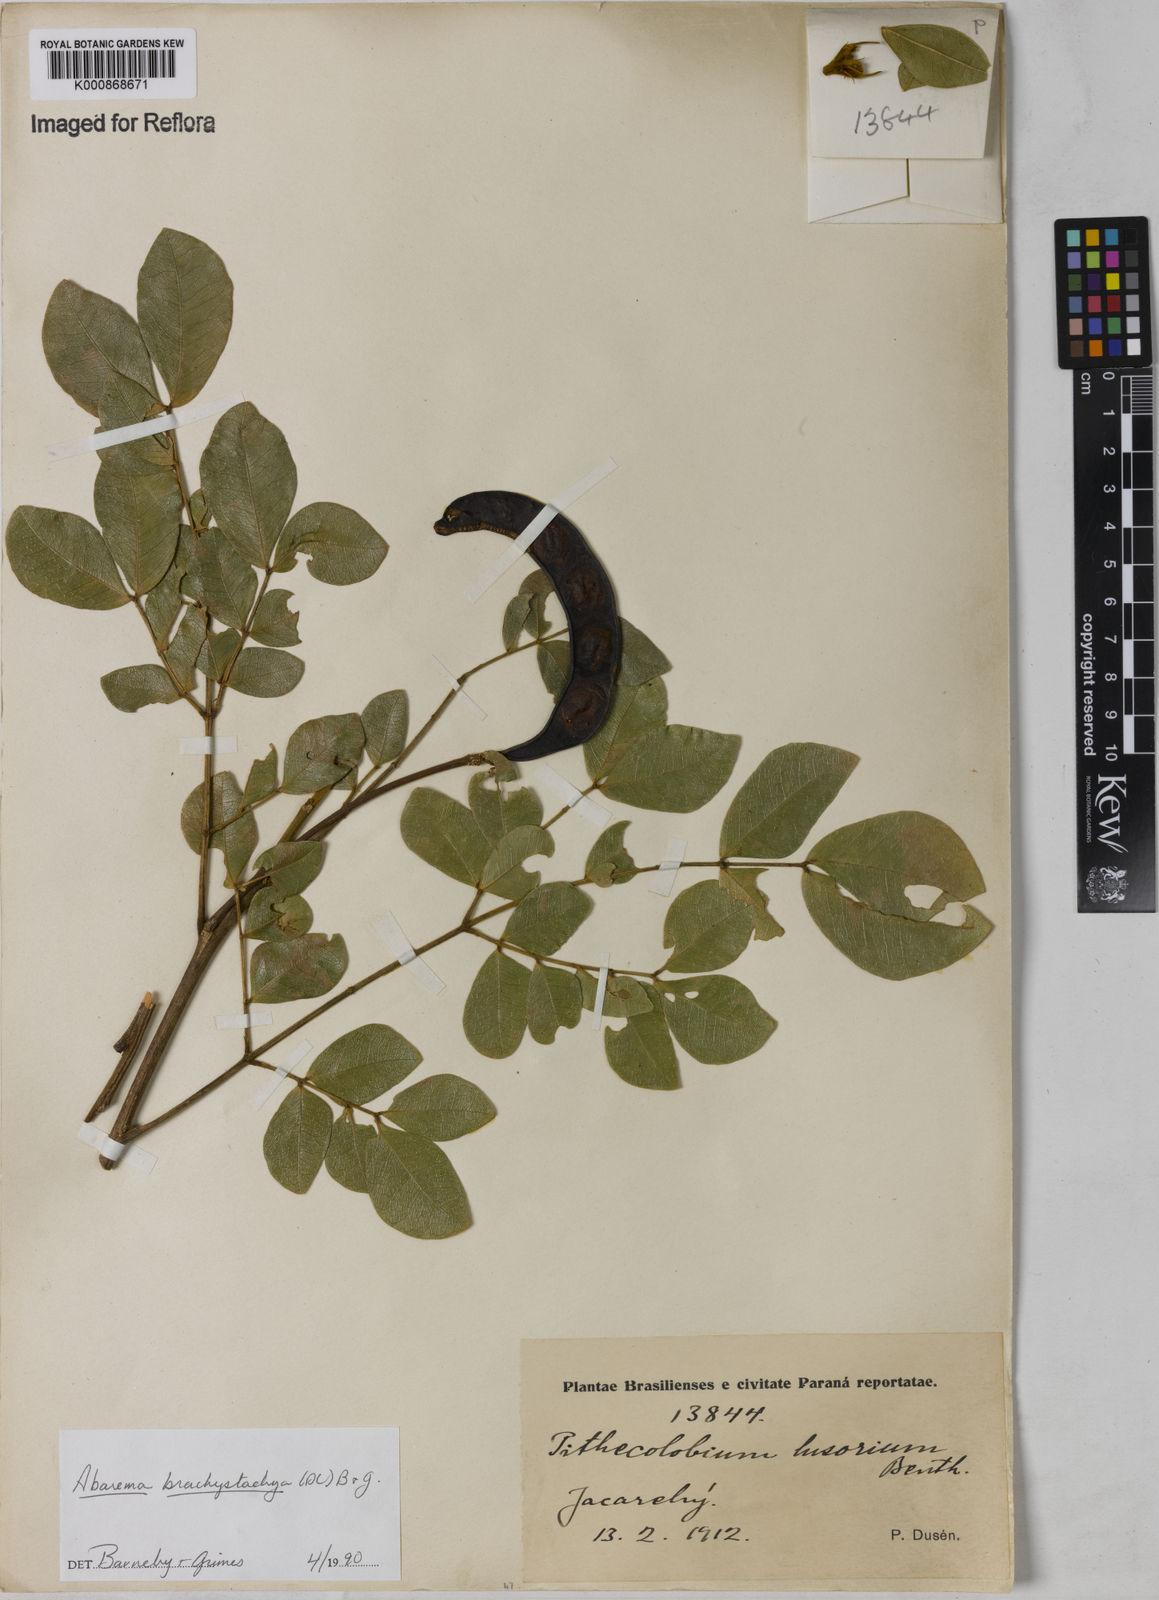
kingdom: Plantae
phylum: Tracheophyta
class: Magnoliopsida
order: Fabales
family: Fabaceae
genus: Abarema
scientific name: Abarema
